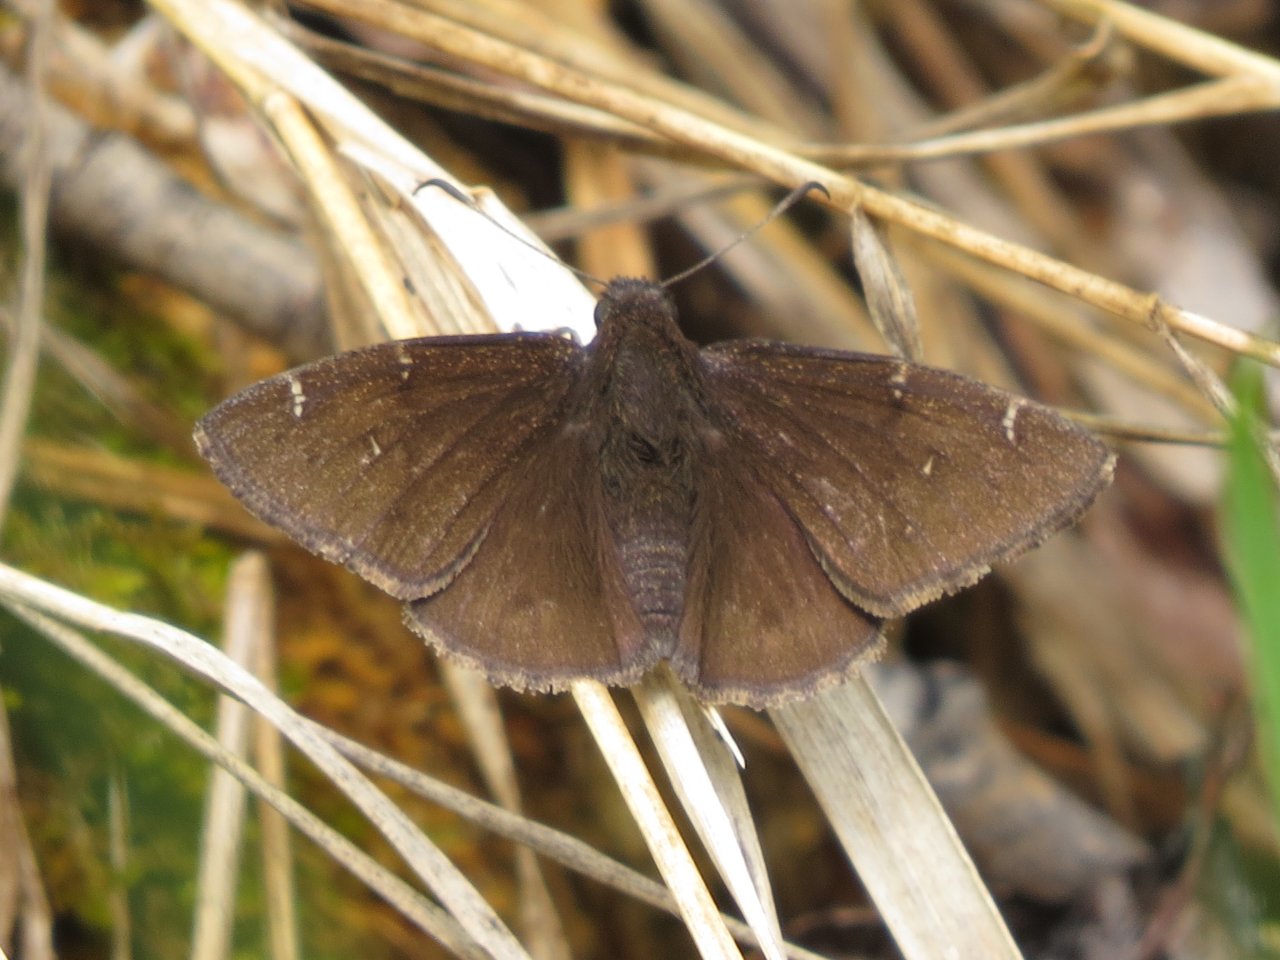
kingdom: Animalia
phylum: Arthropoda
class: Insecta
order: Lepidoptera
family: Hesperiidae
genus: Autochton
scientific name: Autochton
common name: Northern Cloudywing
